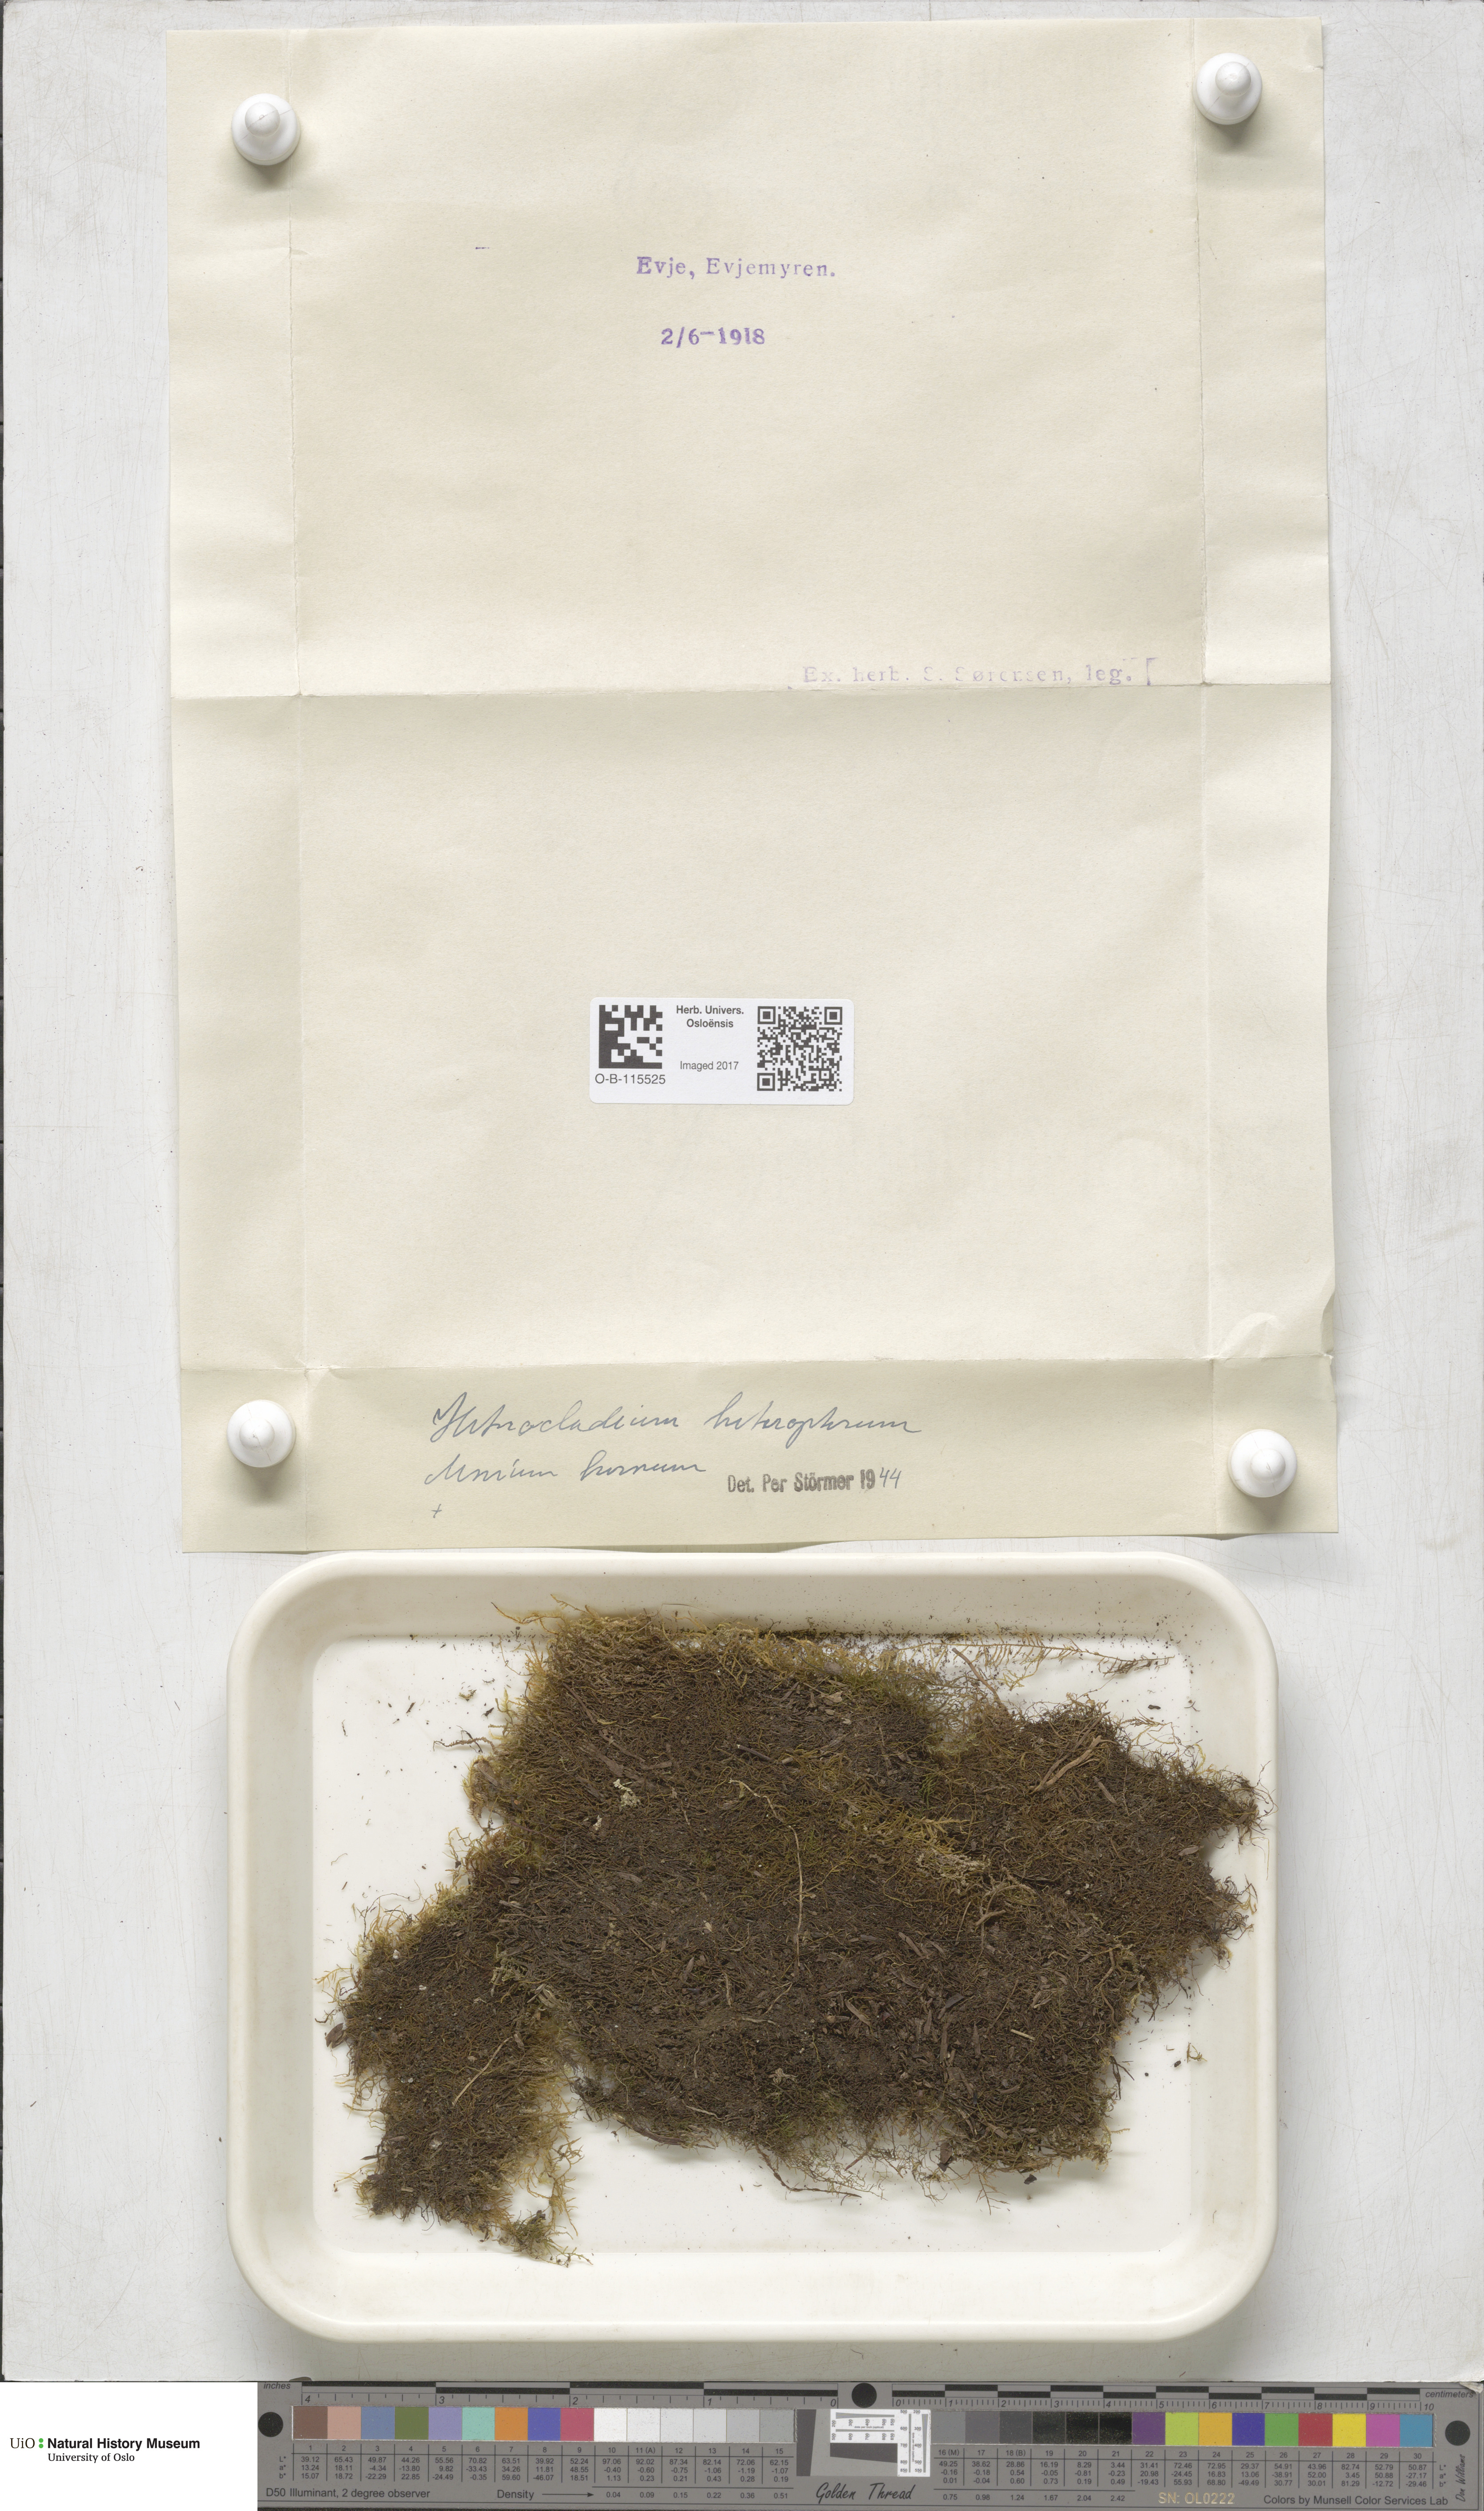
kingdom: Plantae
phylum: Bryophyta
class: Bryopsida
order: Hypnales
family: Lembophyllaceae
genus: Heterocladium
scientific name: Heterocladium heteropterum
